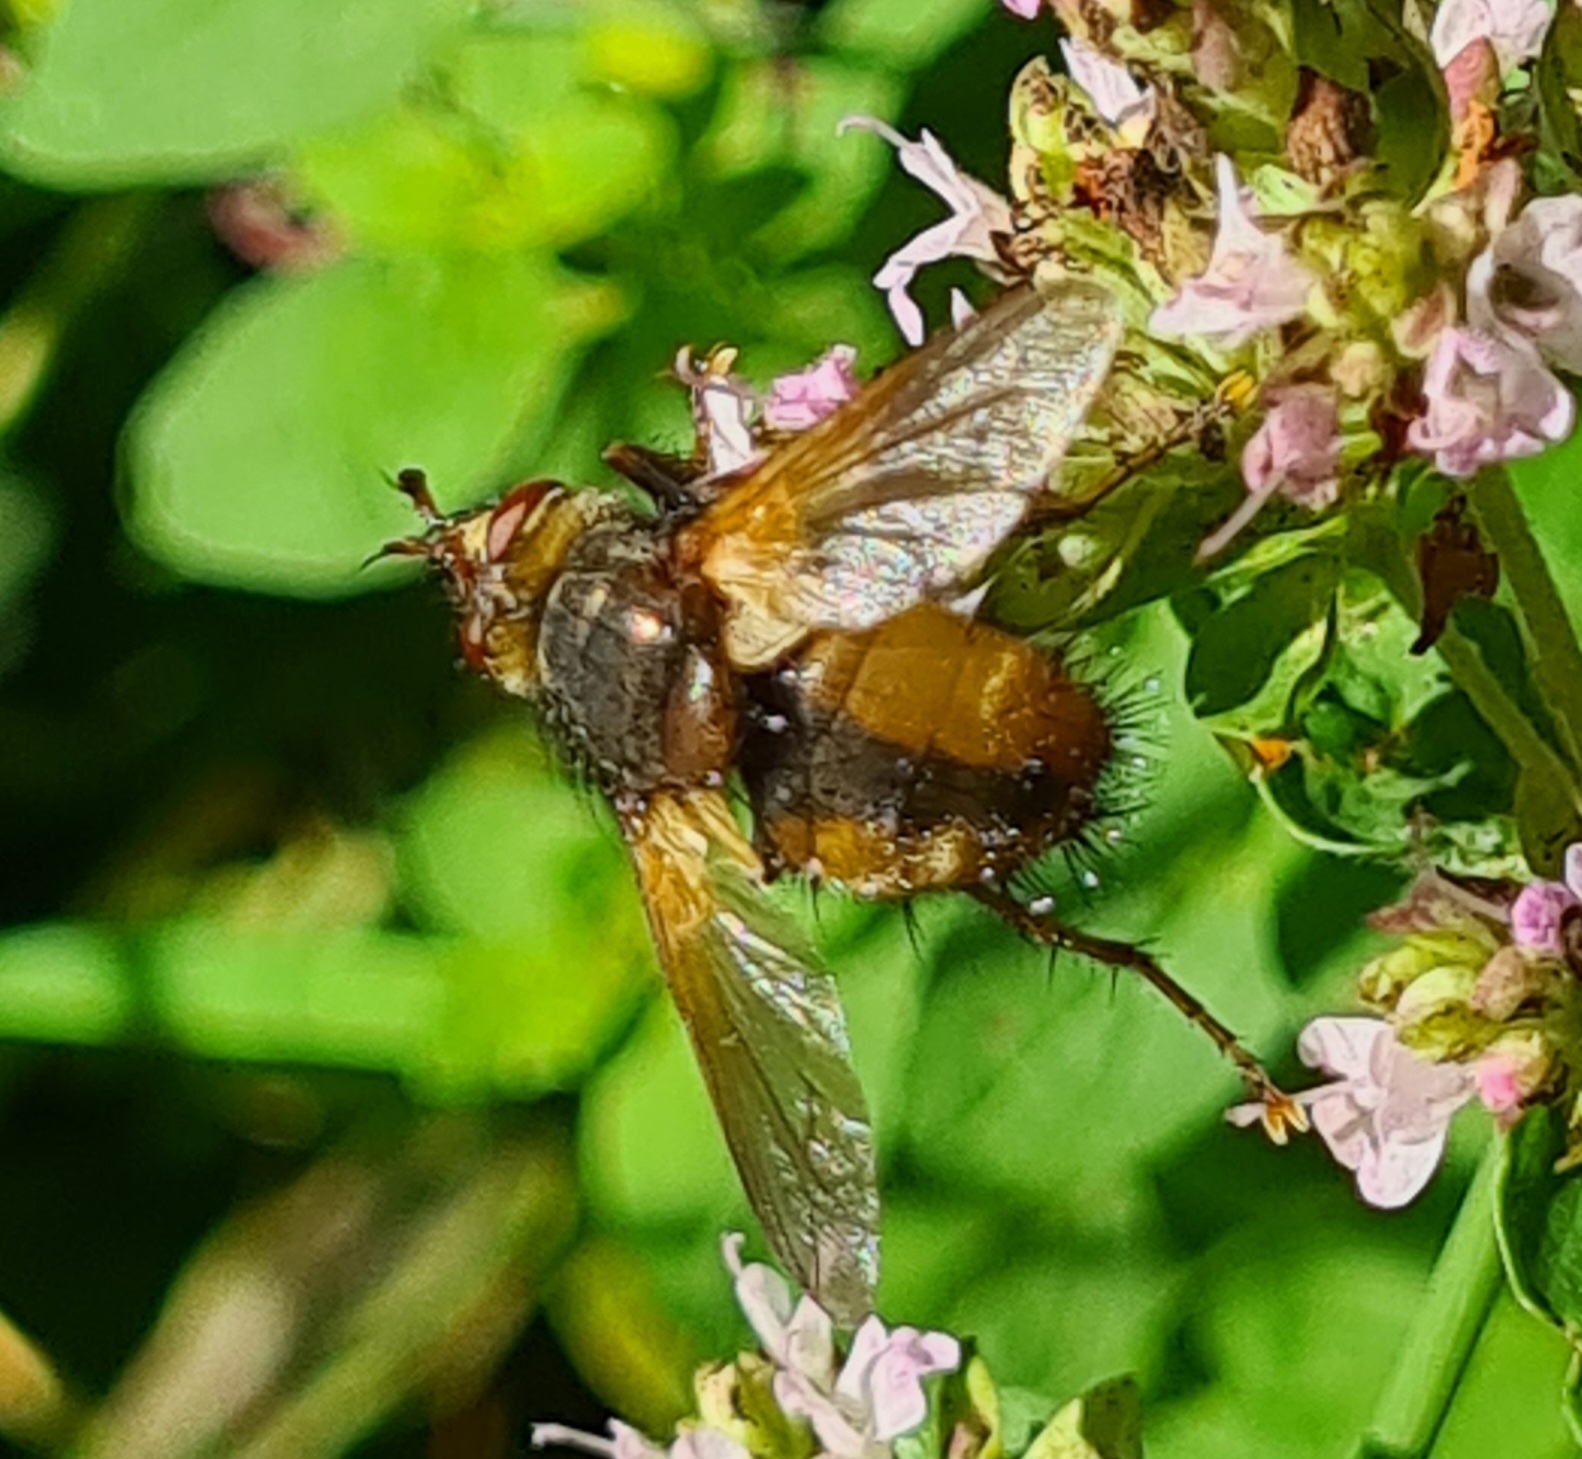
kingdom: Animalia
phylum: Arthropoda
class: Insecta
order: Diptera
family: Tachinidae
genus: Tachina
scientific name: Tachina fera
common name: Mellemfluen oskar
